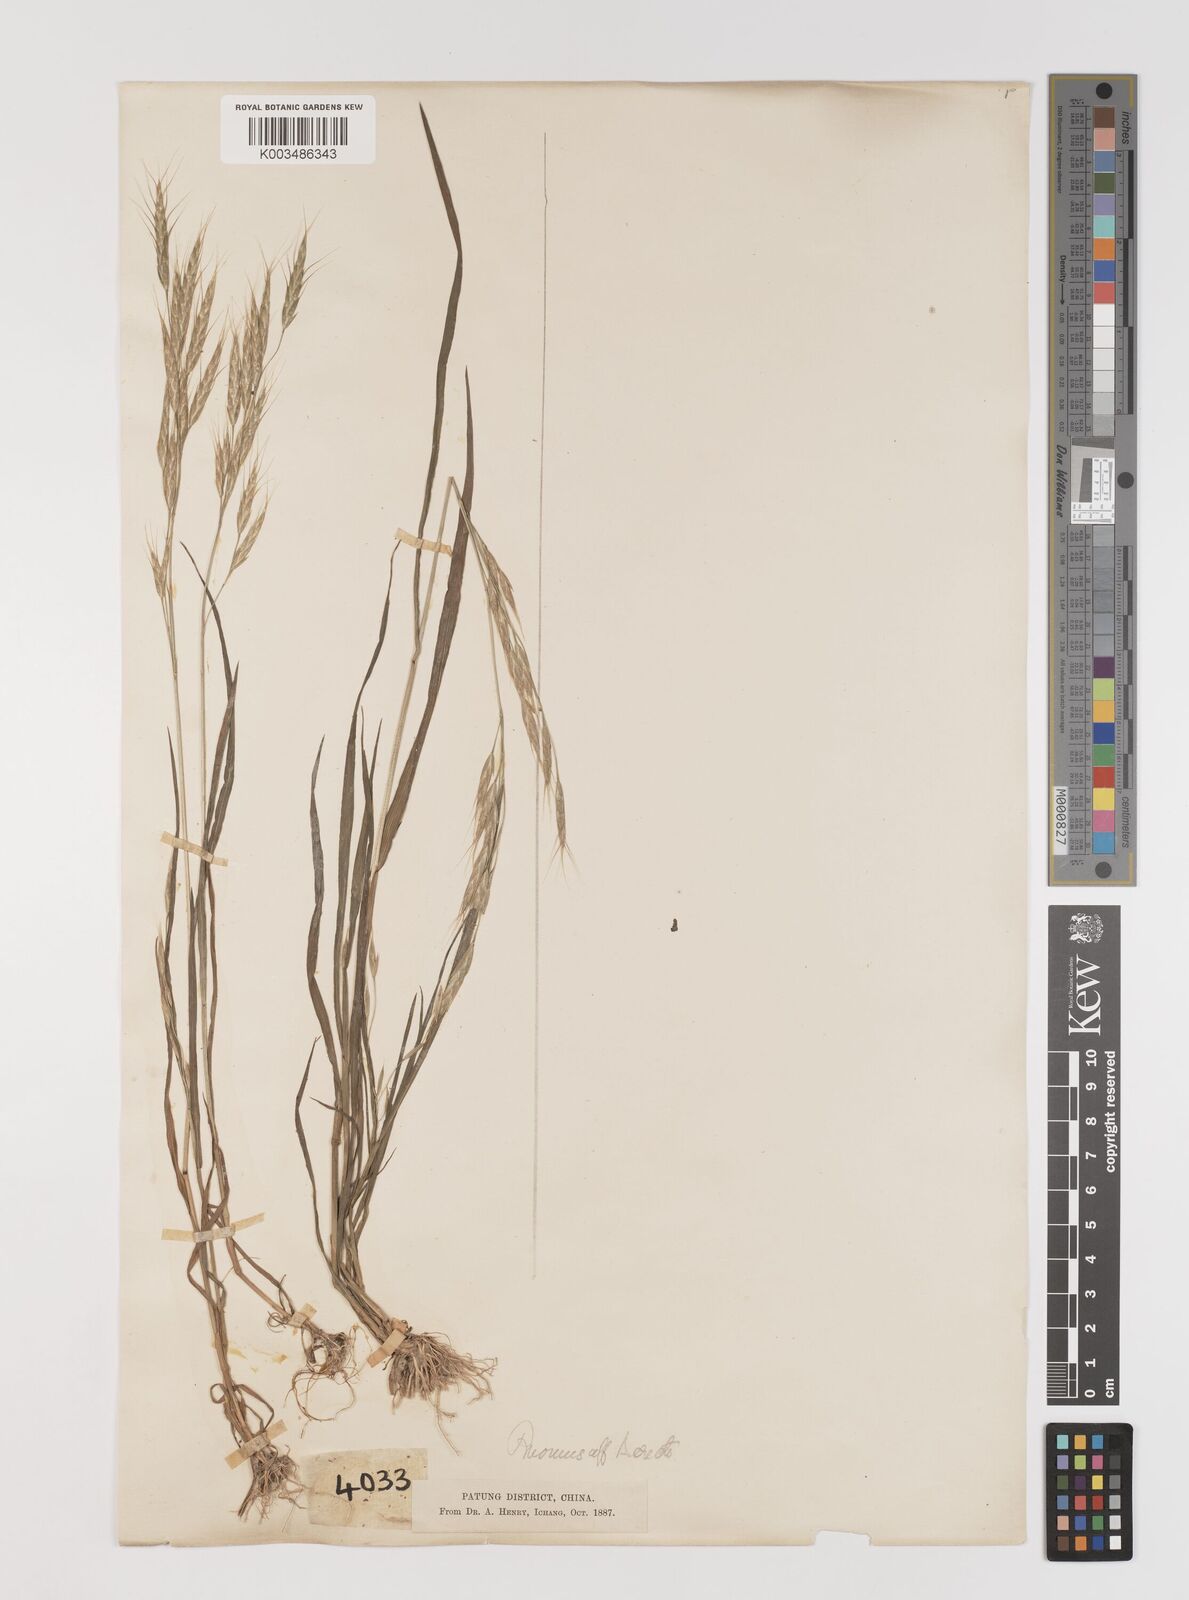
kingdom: Plantae
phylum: Tracheophyta
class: Liliopsida
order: Poales
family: Poaceae
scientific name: Poaceae
